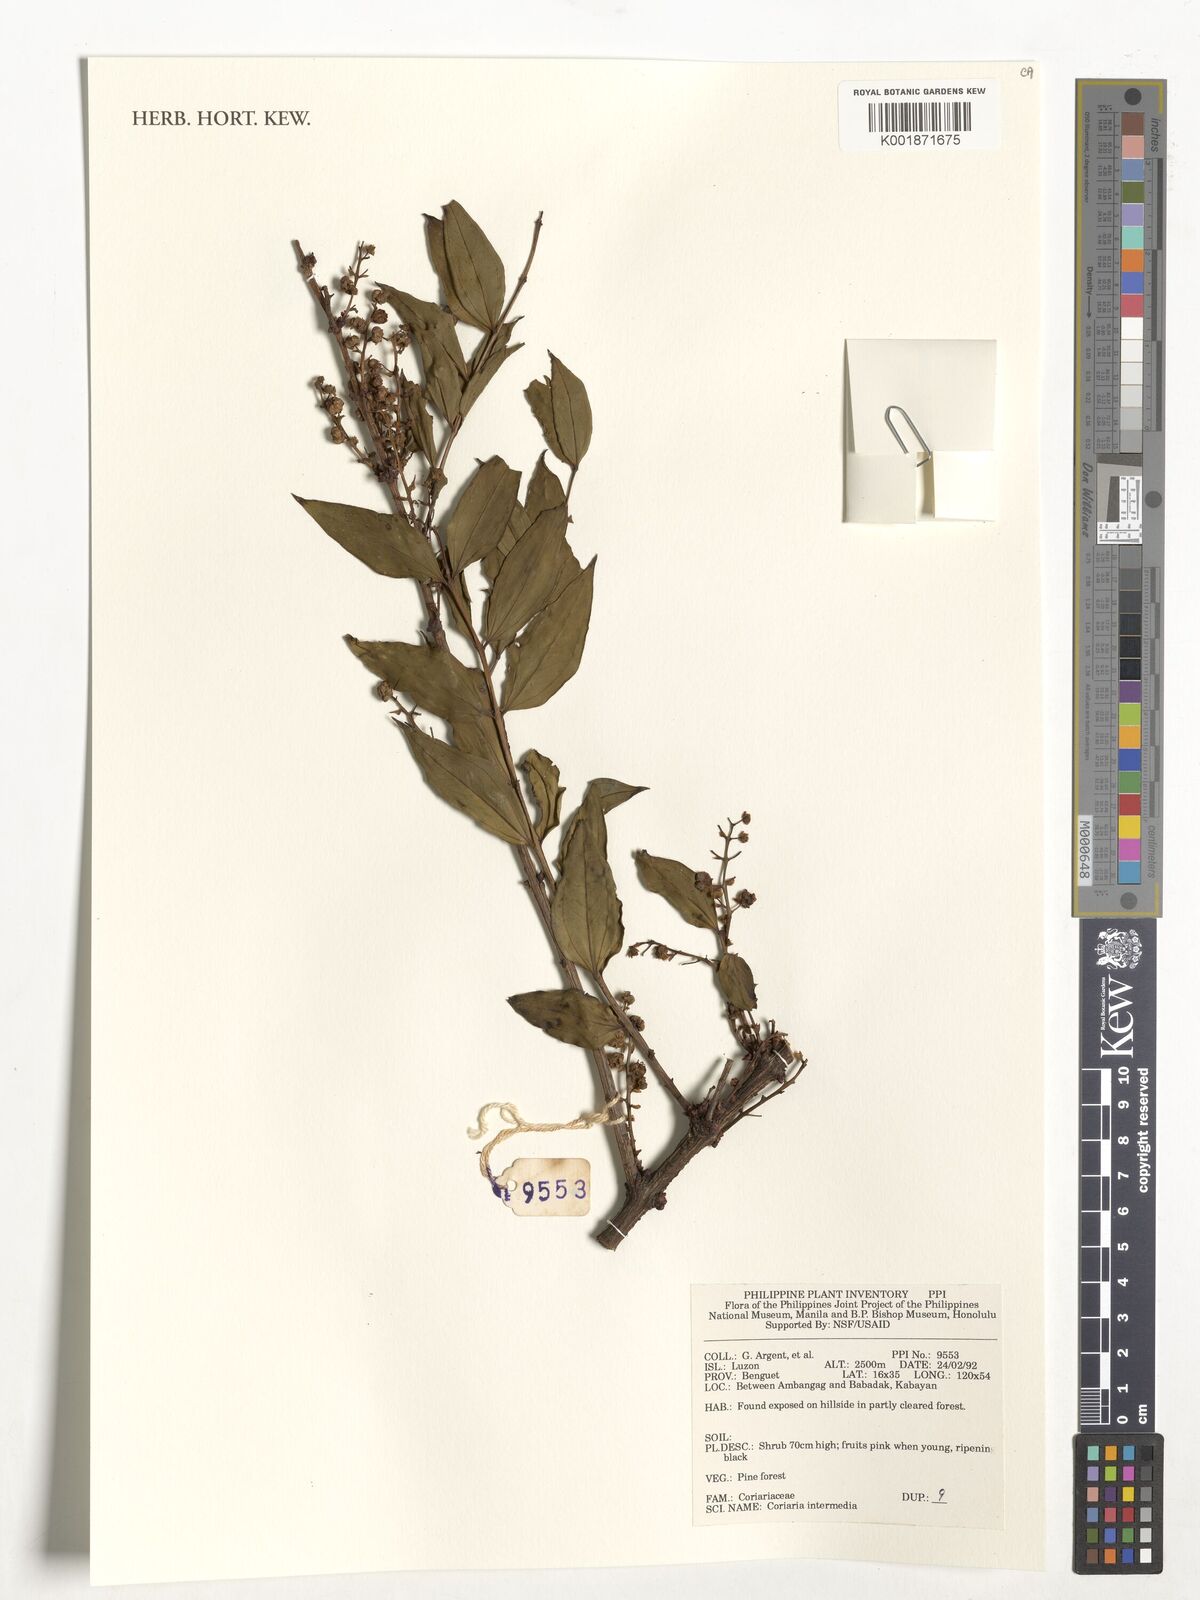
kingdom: Plantae
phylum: Tracheophyta
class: Magnoliopsida
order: Cucurbitales
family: Coriariaceae
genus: Coriaria
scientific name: Coriaria japonica
